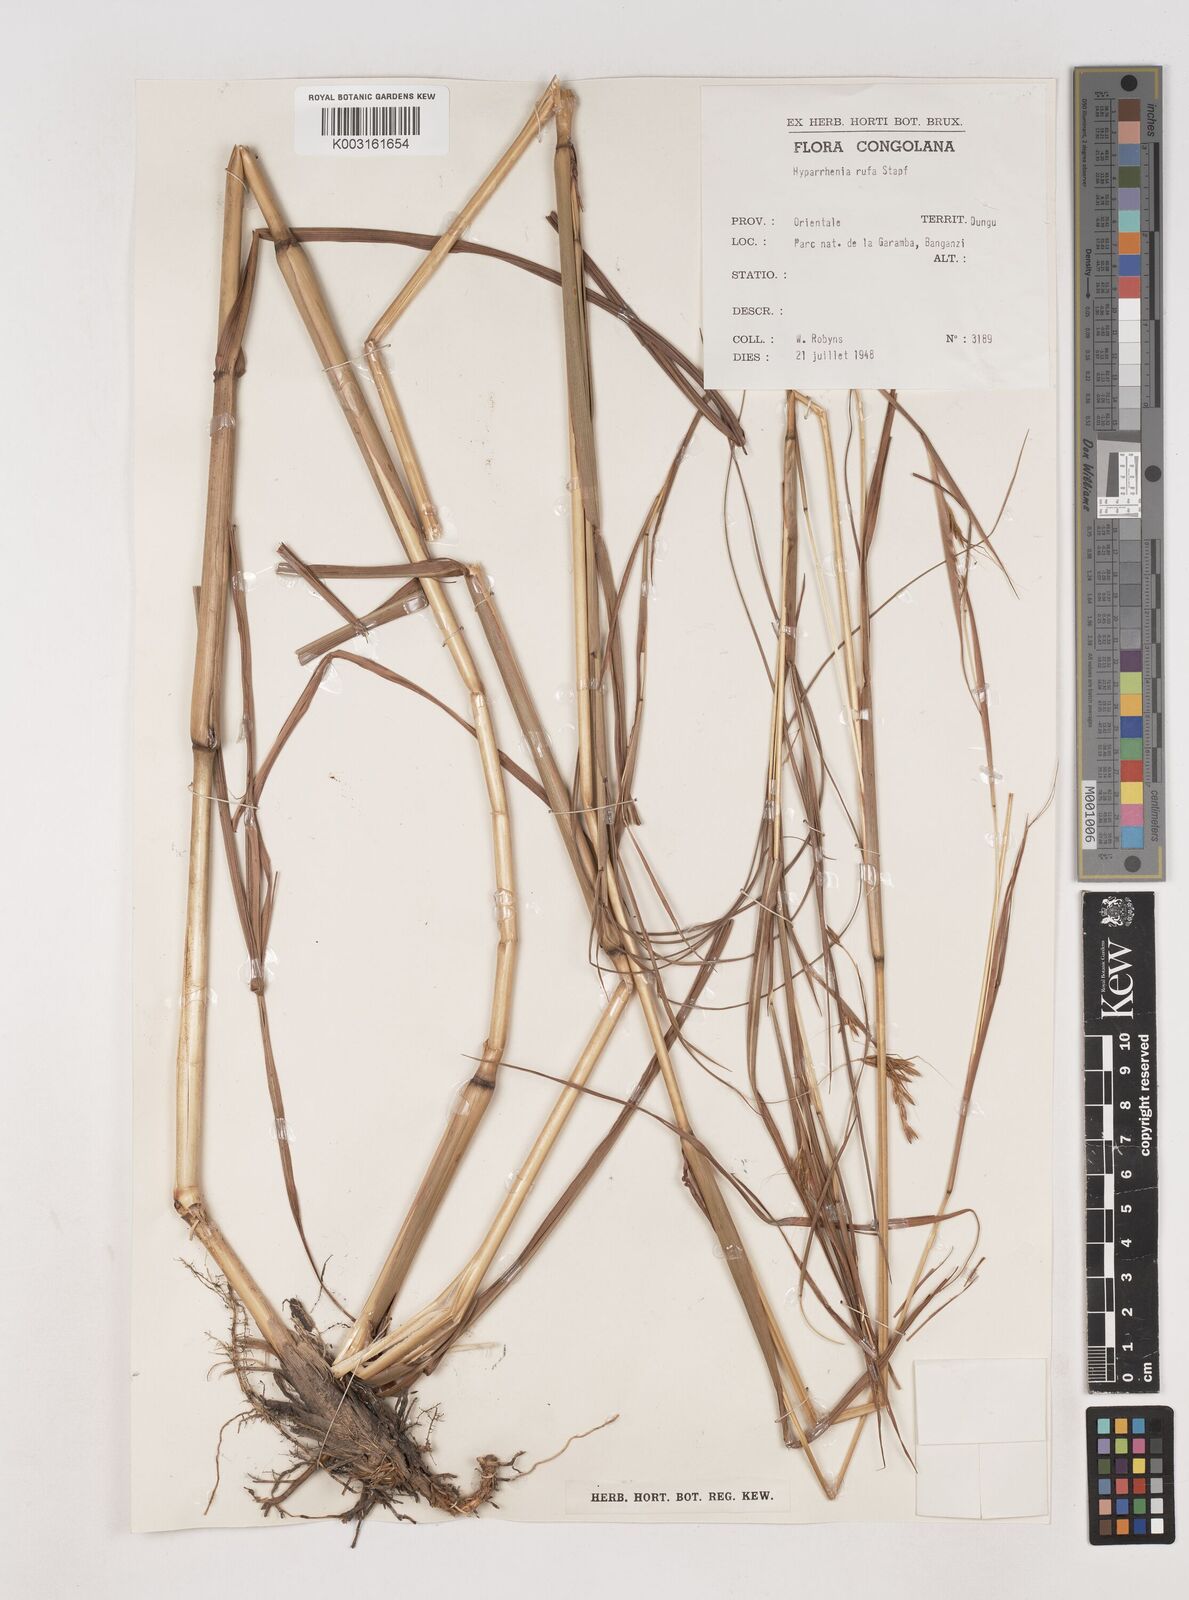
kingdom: Plantae
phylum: Tracheophyta
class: Liliopsida
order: Poales
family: Poaceae
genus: Hyparrhenia
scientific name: Hyparrhenia rufa
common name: Jaraguagrass
